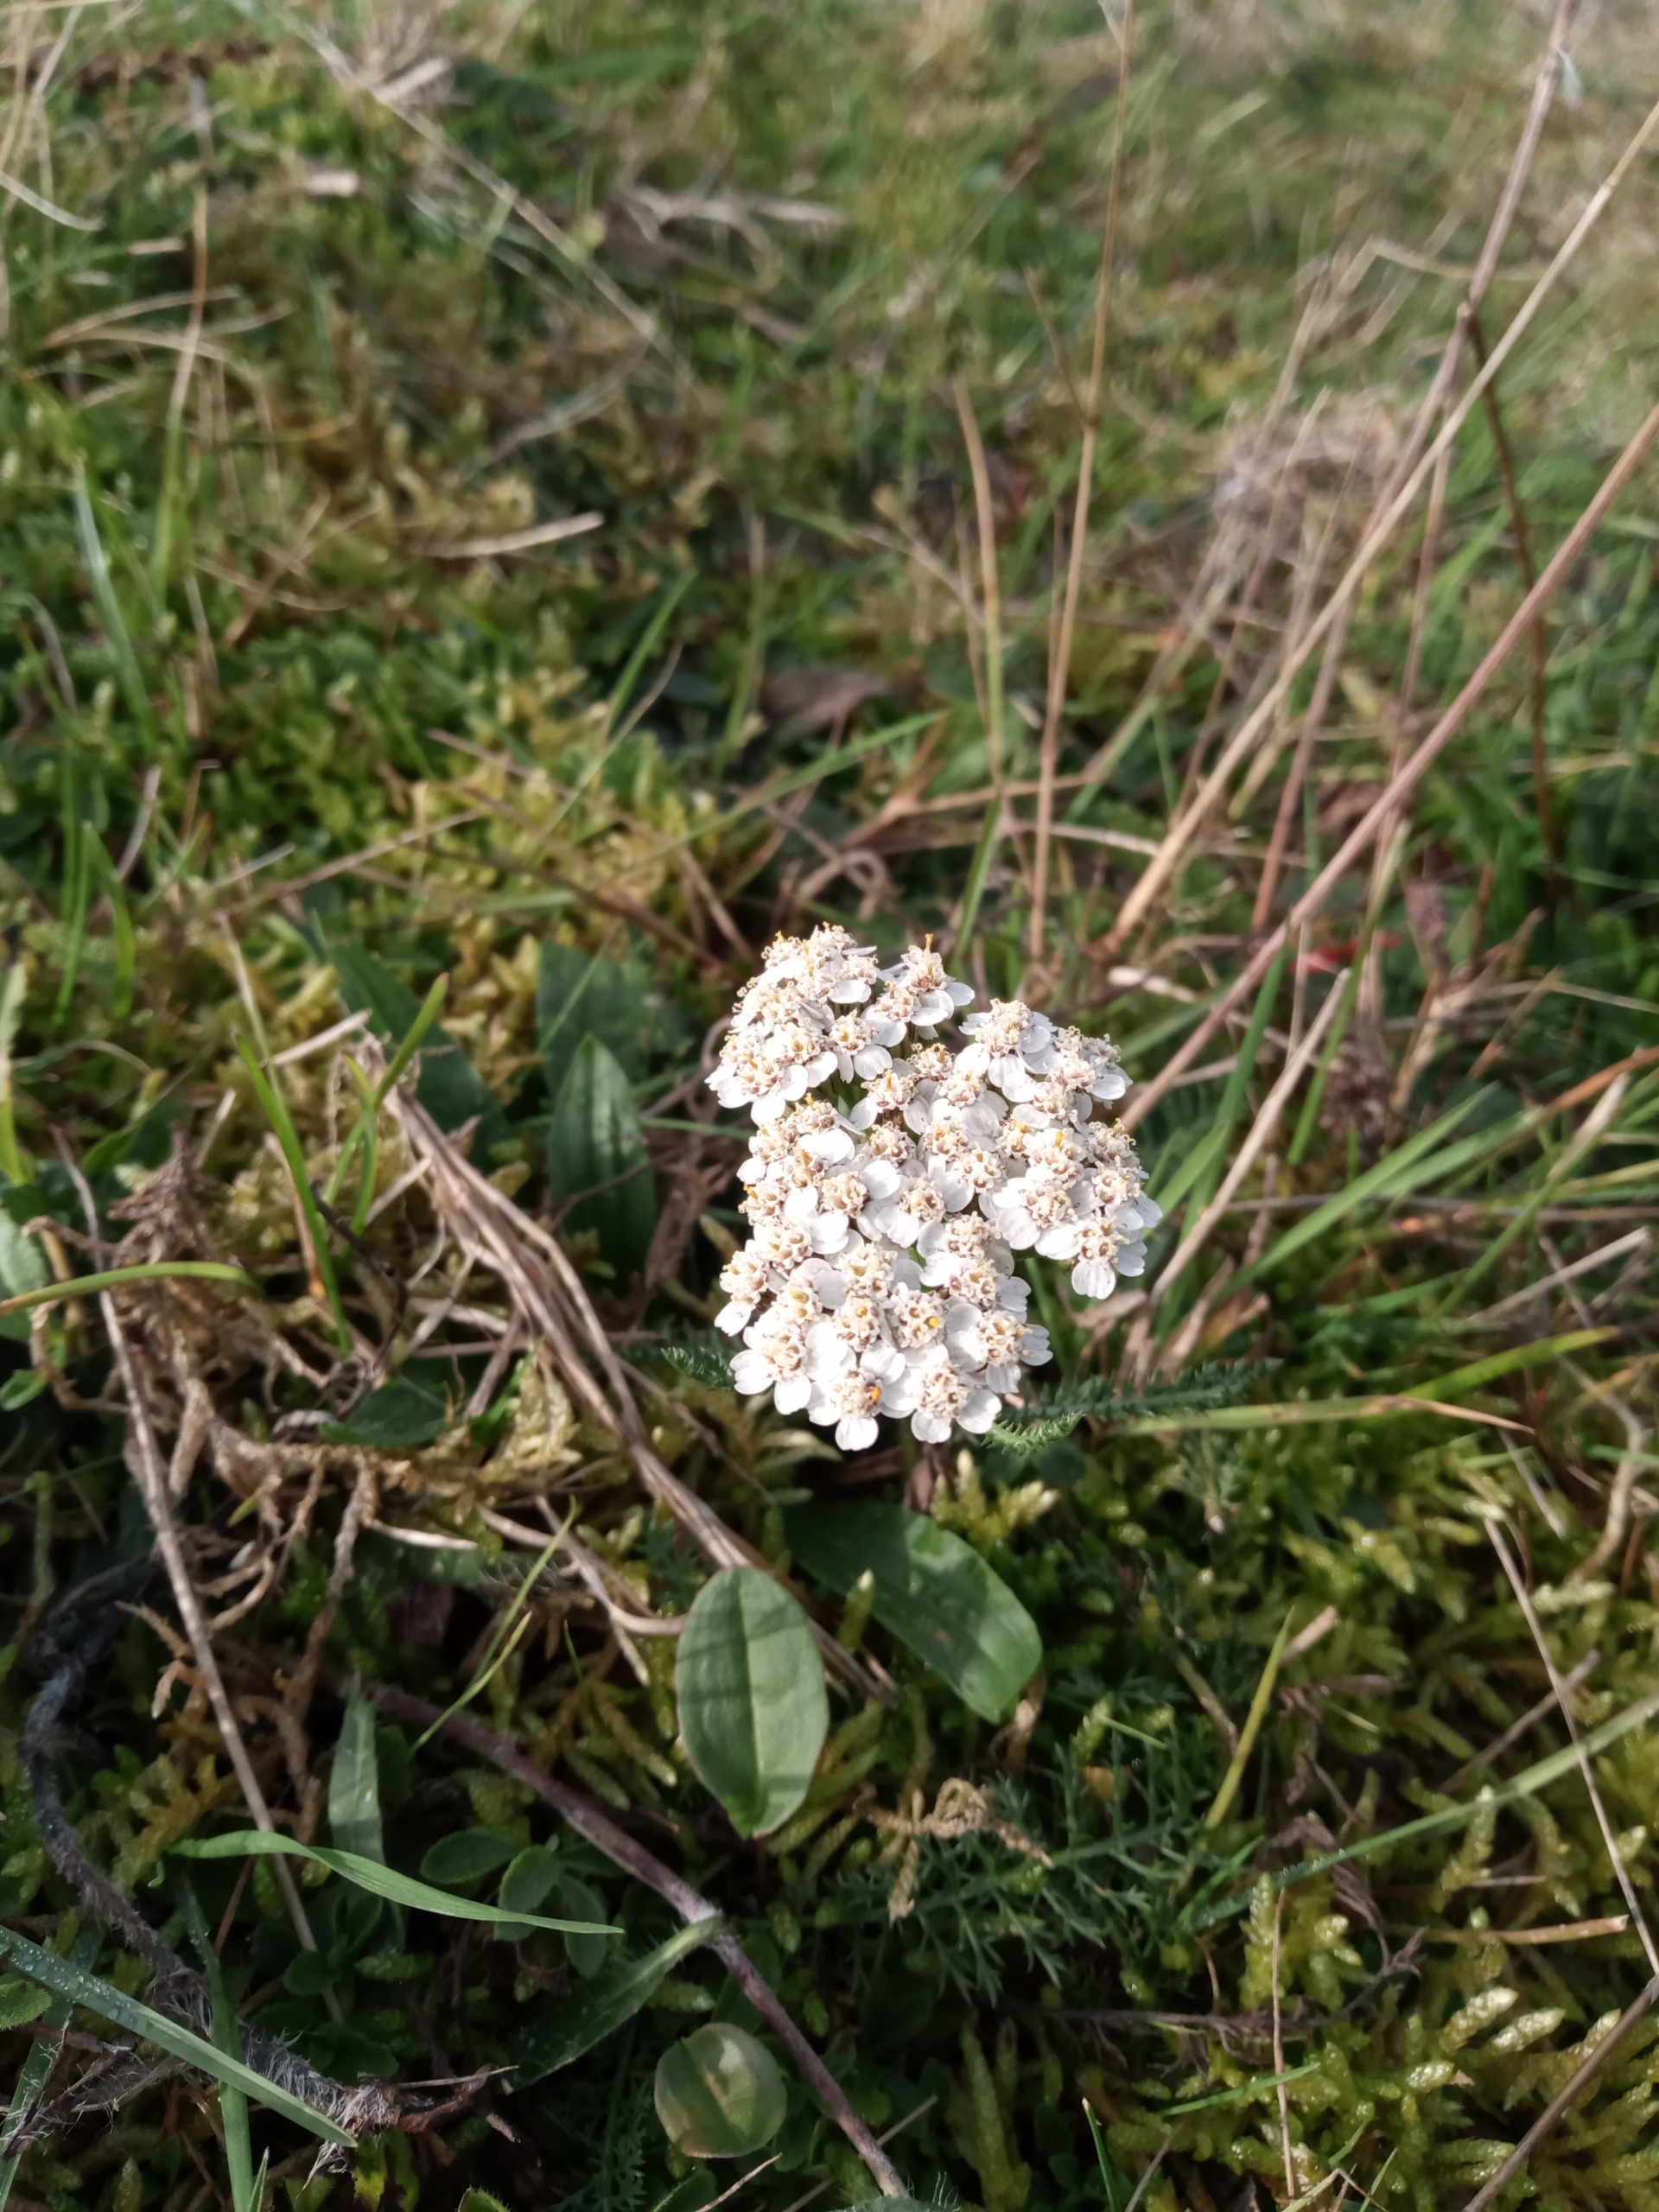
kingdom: Plantae
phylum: Tracheophyta
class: Magnoliopsida
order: Asterales
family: Asteraceae
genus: Achillea
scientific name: Achillea millefolium
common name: Almindelig røllike
